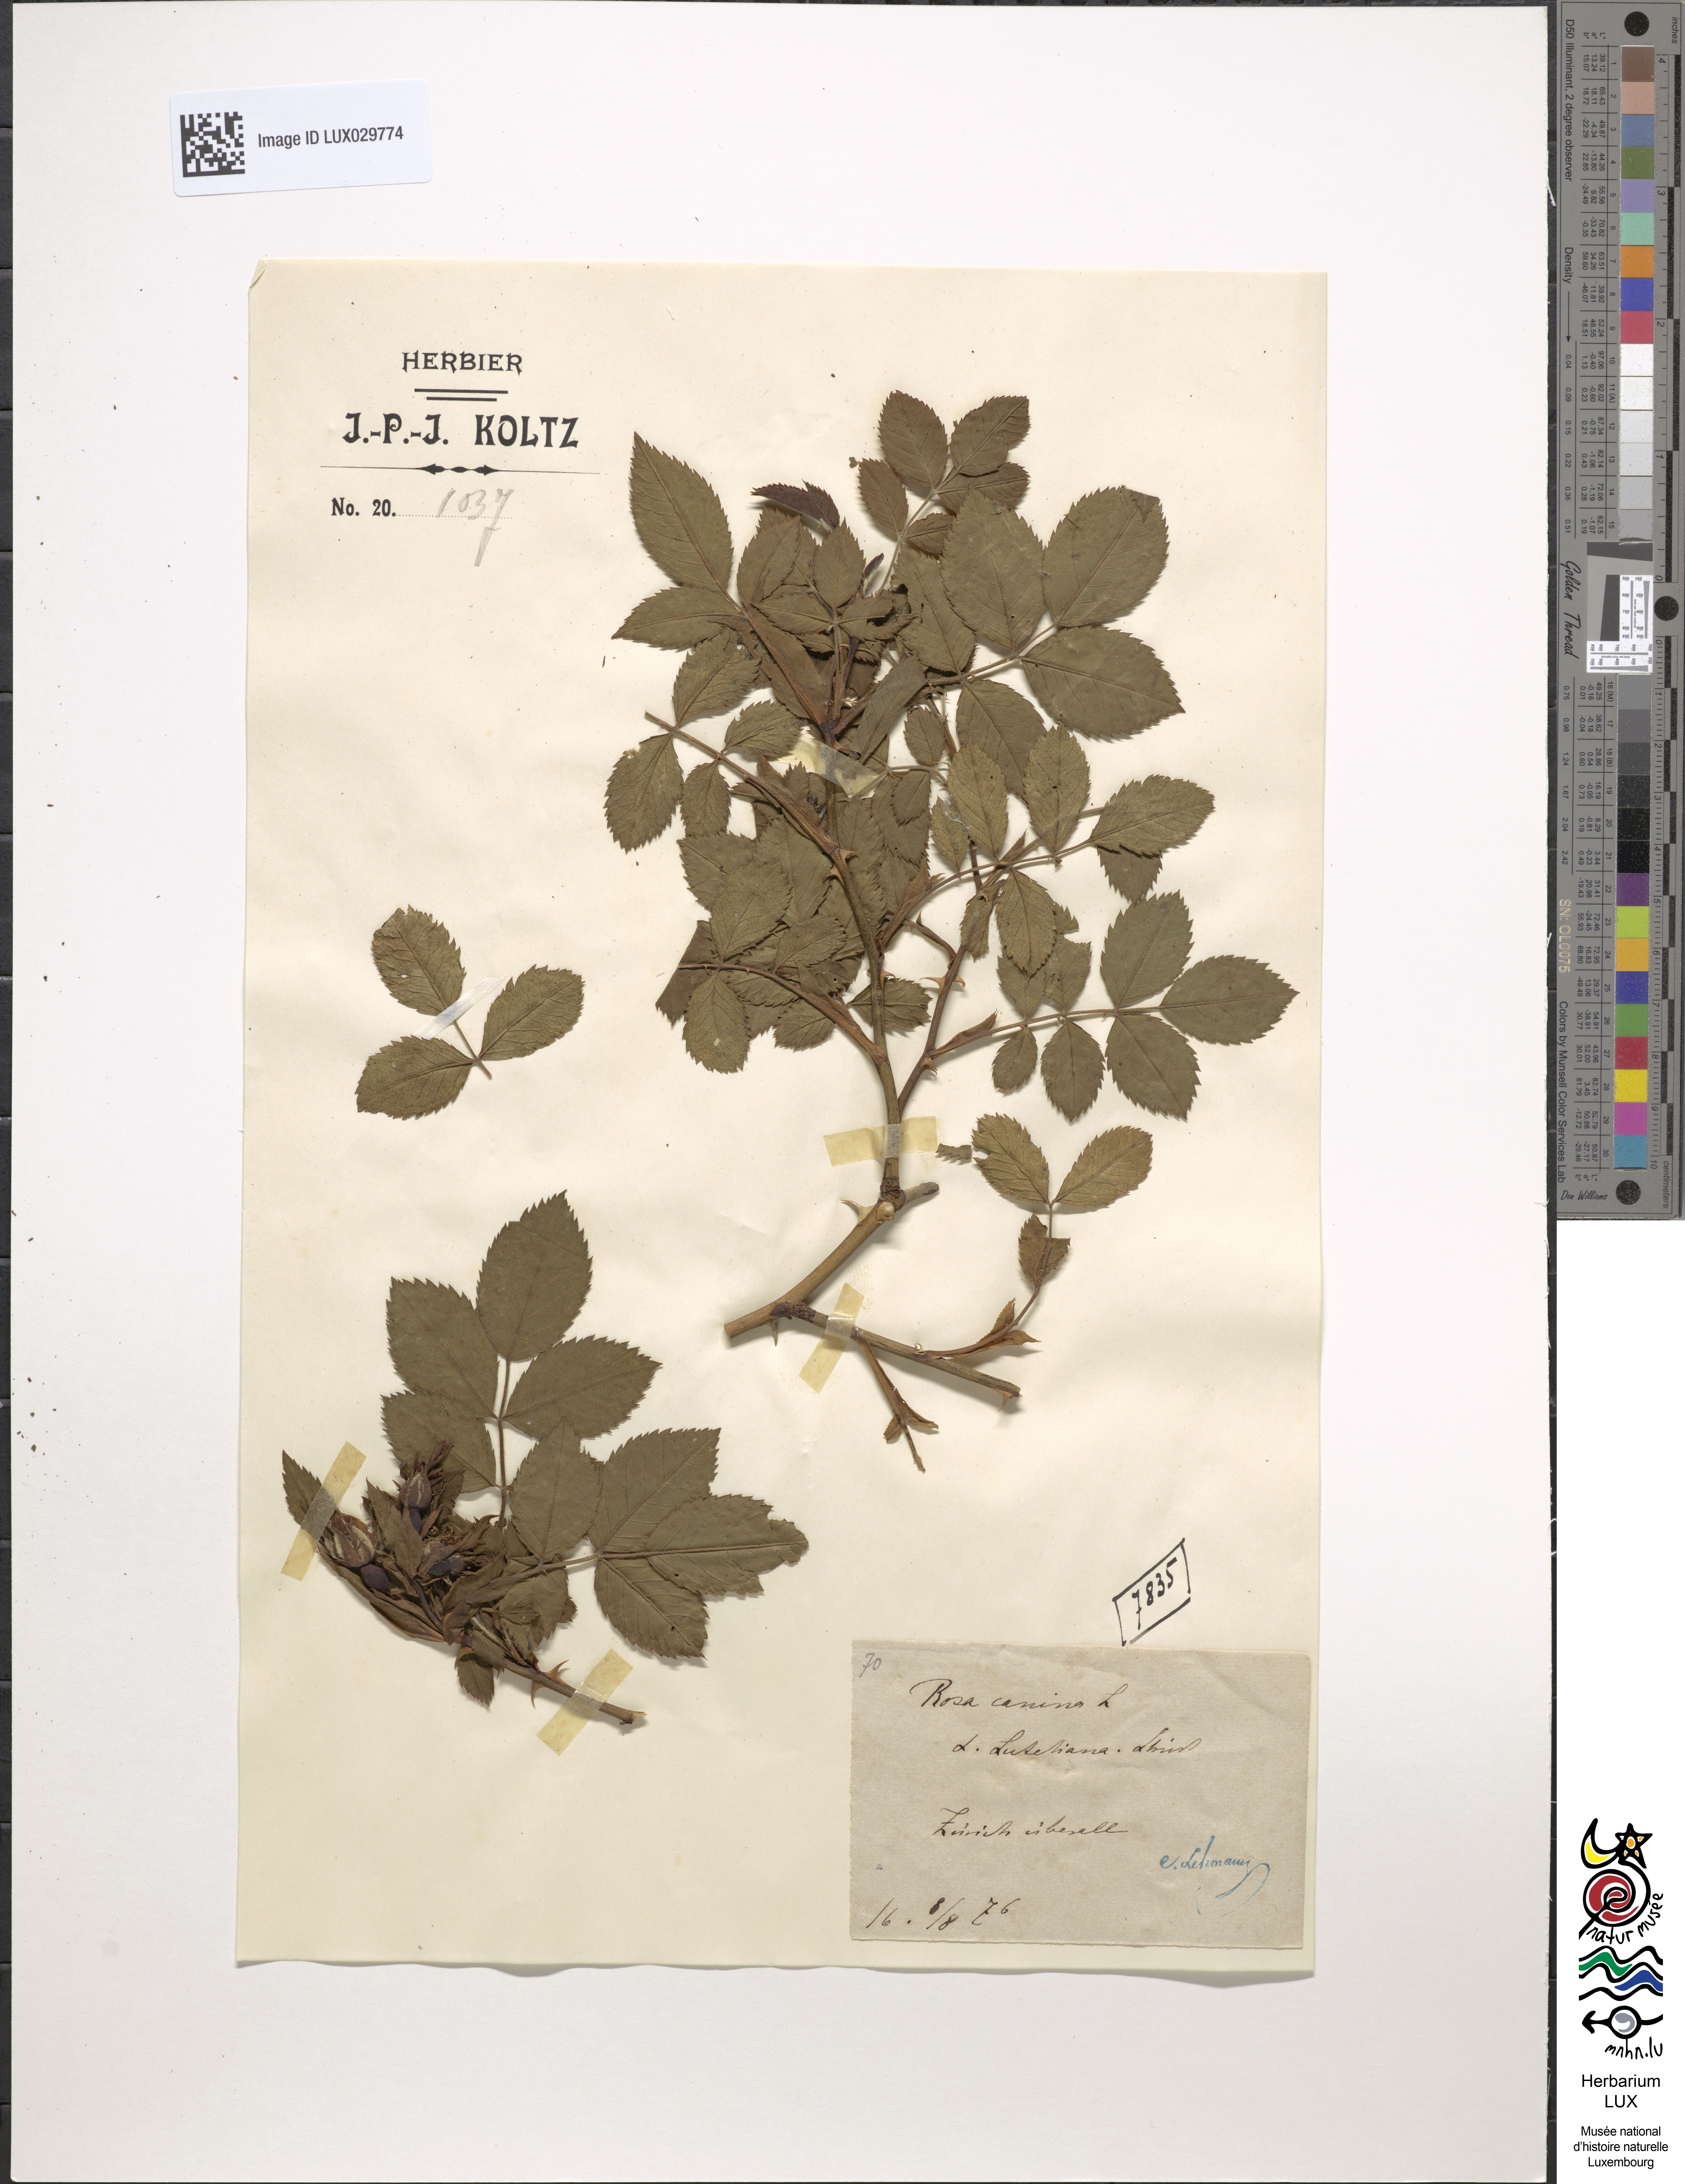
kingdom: Plantae
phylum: Tracheophyta
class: Magnoliopsida
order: Rosales
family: Rosaceae
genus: Rosa
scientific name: Rosa canina
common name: Dog rose
